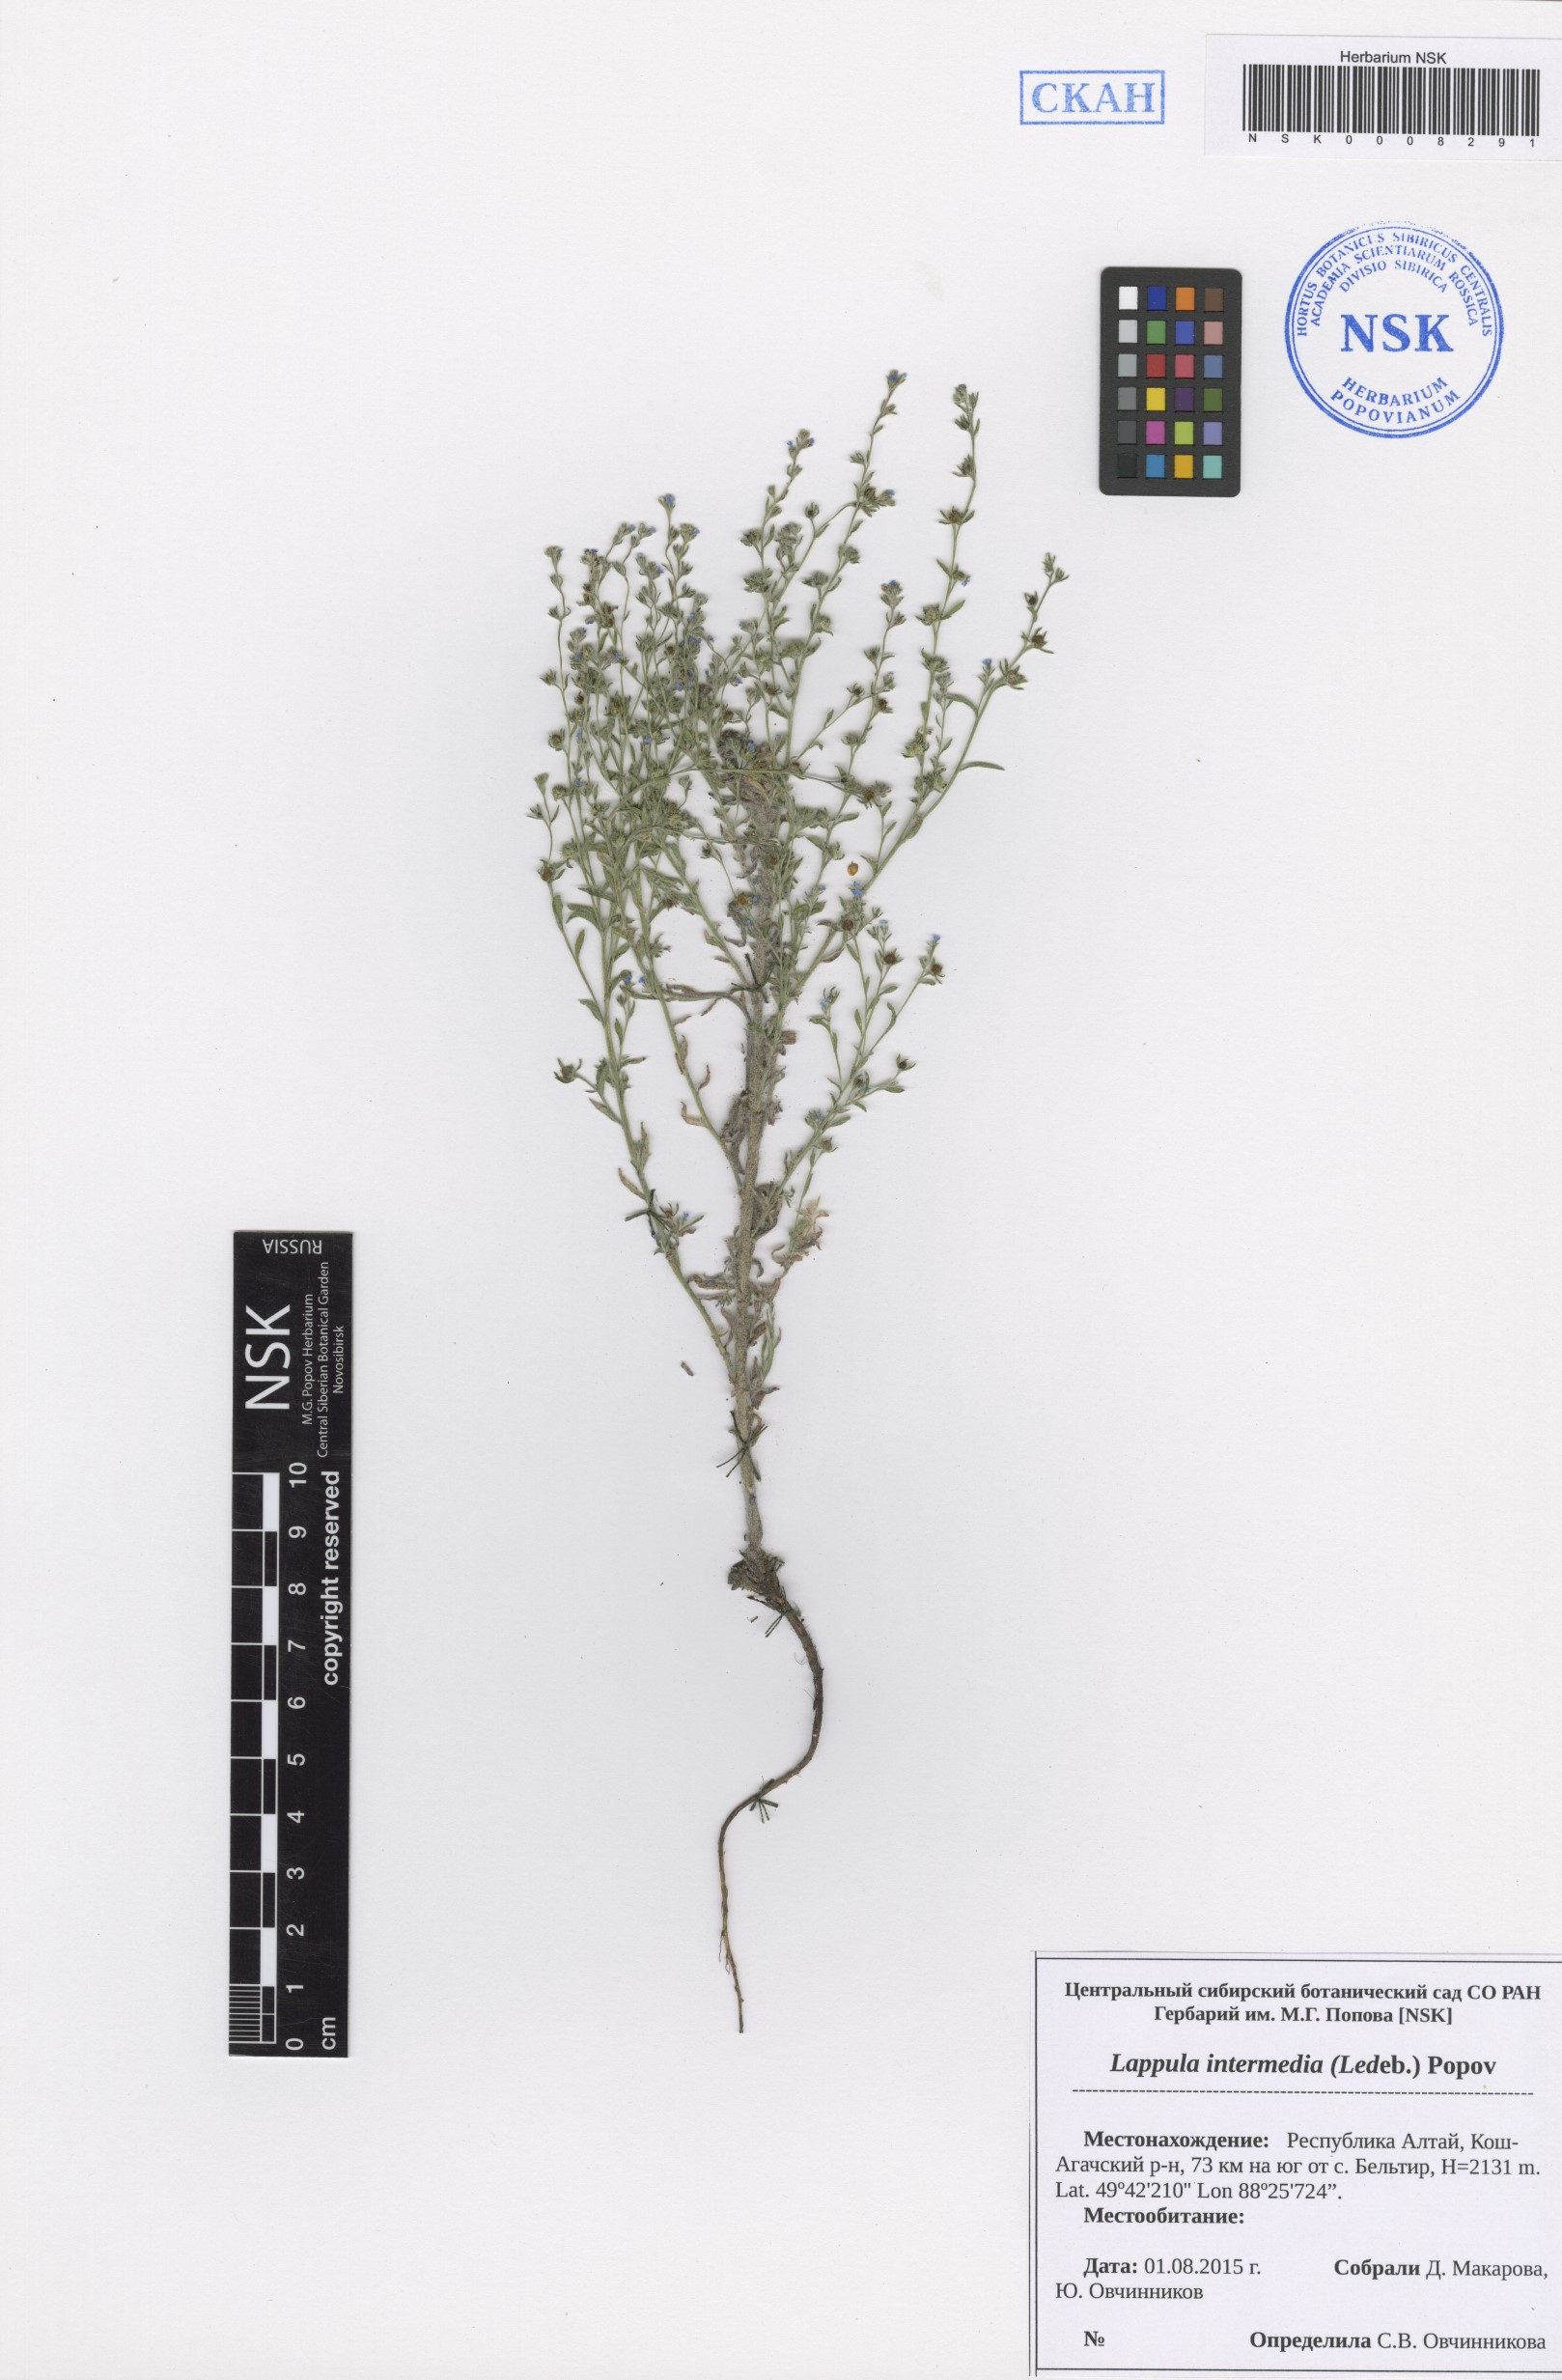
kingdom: Plantae
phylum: Tracheophyta
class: Magnoliopsida
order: Boraginales
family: Boraginaceae
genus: Lappula
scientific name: Lappula intermedia
